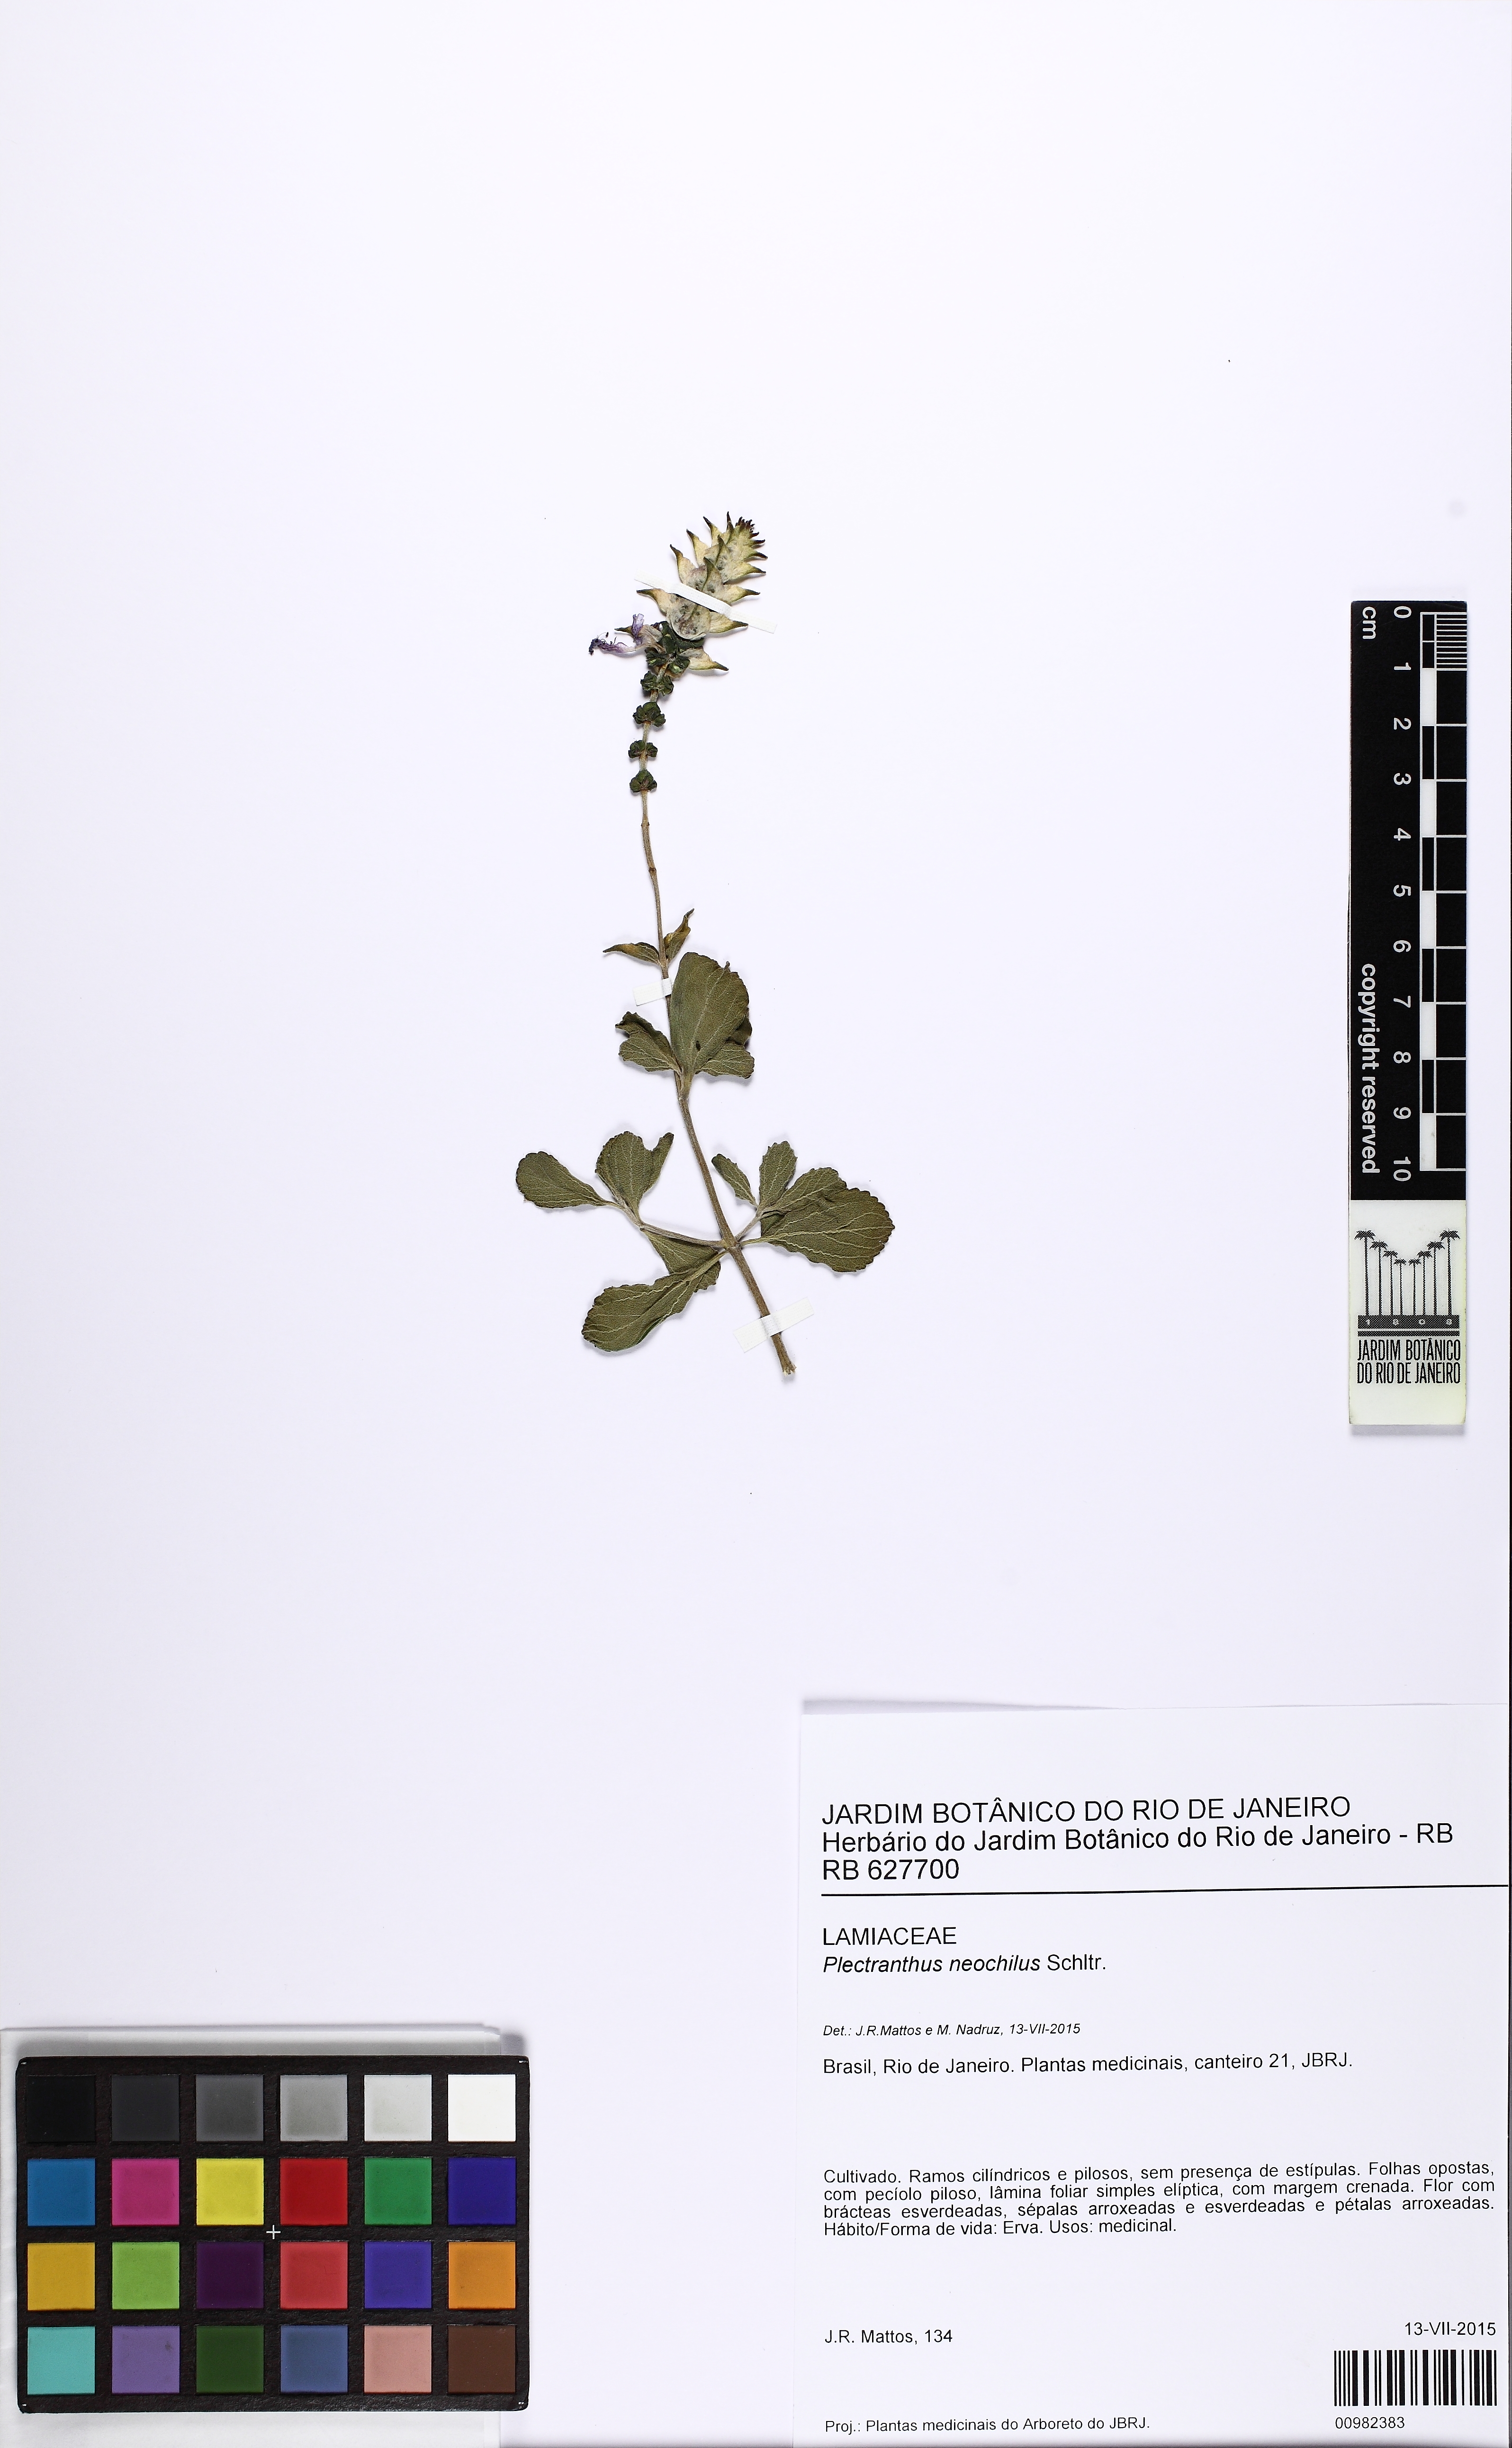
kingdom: Plantae
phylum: Tracheophyta
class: Magnoliopsida
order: Lamiales
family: Lamiaceae
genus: Coleus
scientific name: Coleus neochilus
